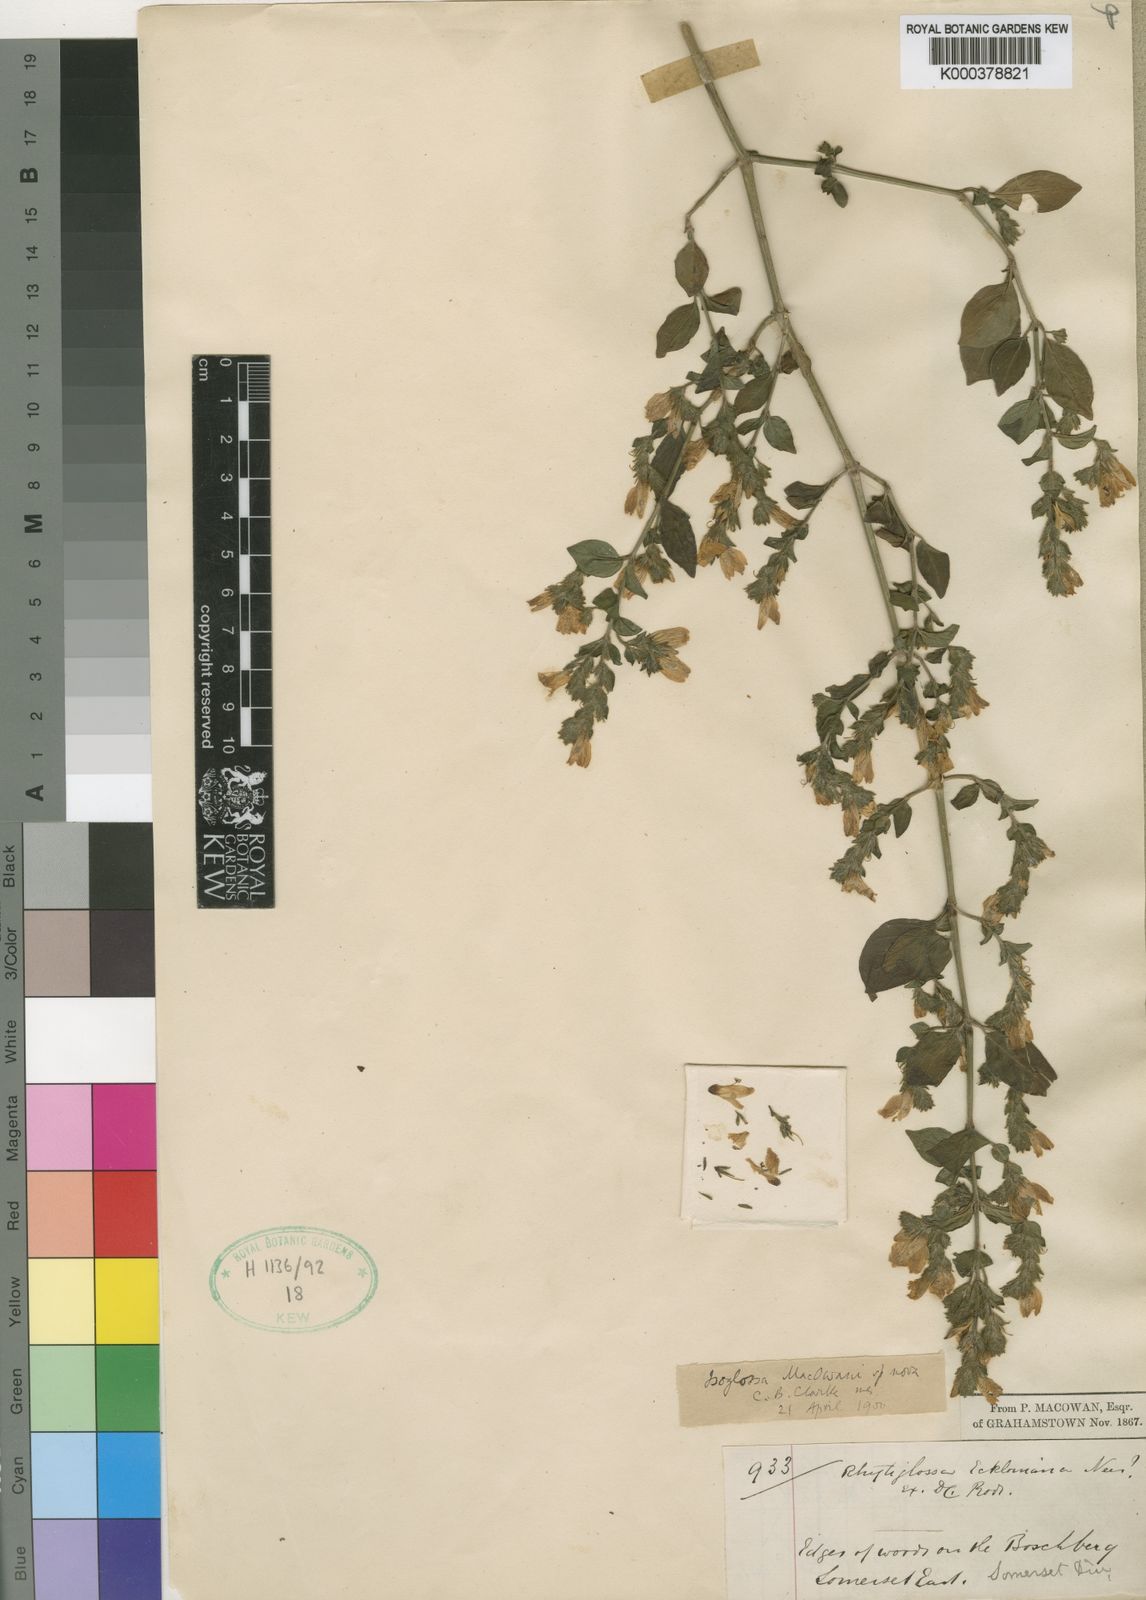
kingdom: Plantae
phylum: Tracheophyta
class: Magnoliopsida
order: Lamiales
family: Acanthaceae
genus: Isoglossa
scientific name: Isoglossa macowanii
